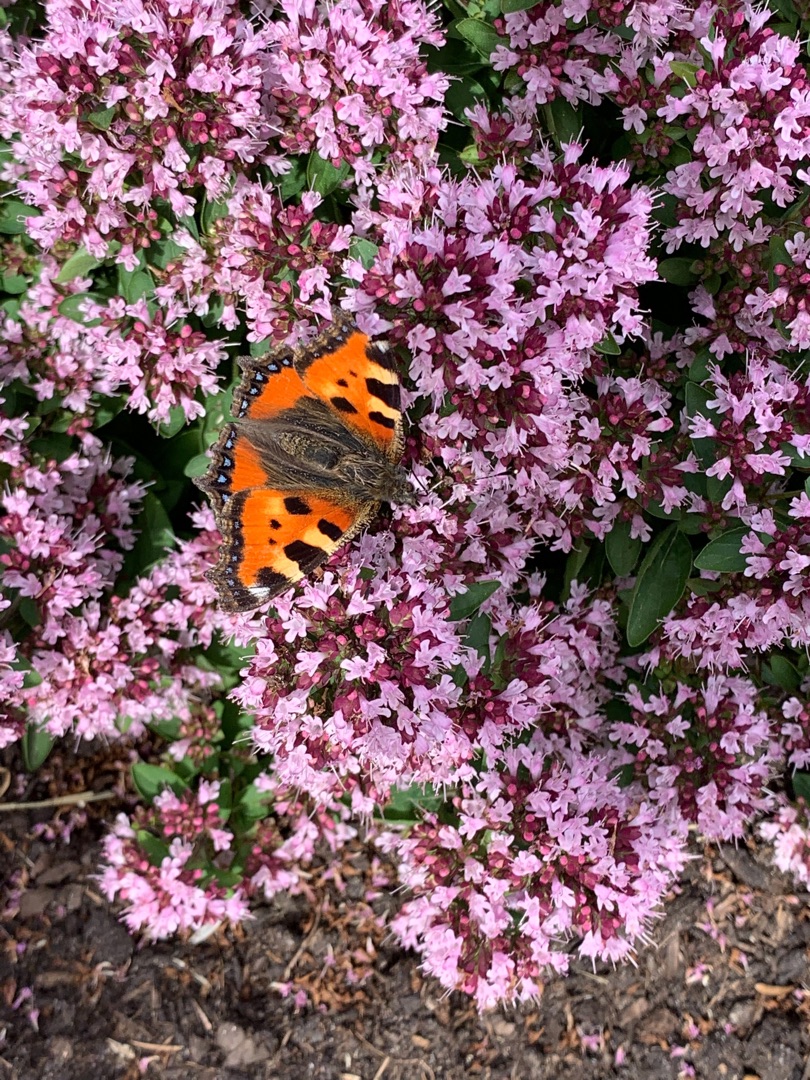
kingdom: Animalia
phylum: Arthropoda
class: Insecta
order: Lepidoptera
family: Nymphalidae
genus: Aglais
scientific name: Aglais urticae
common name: Nældens takvinge
